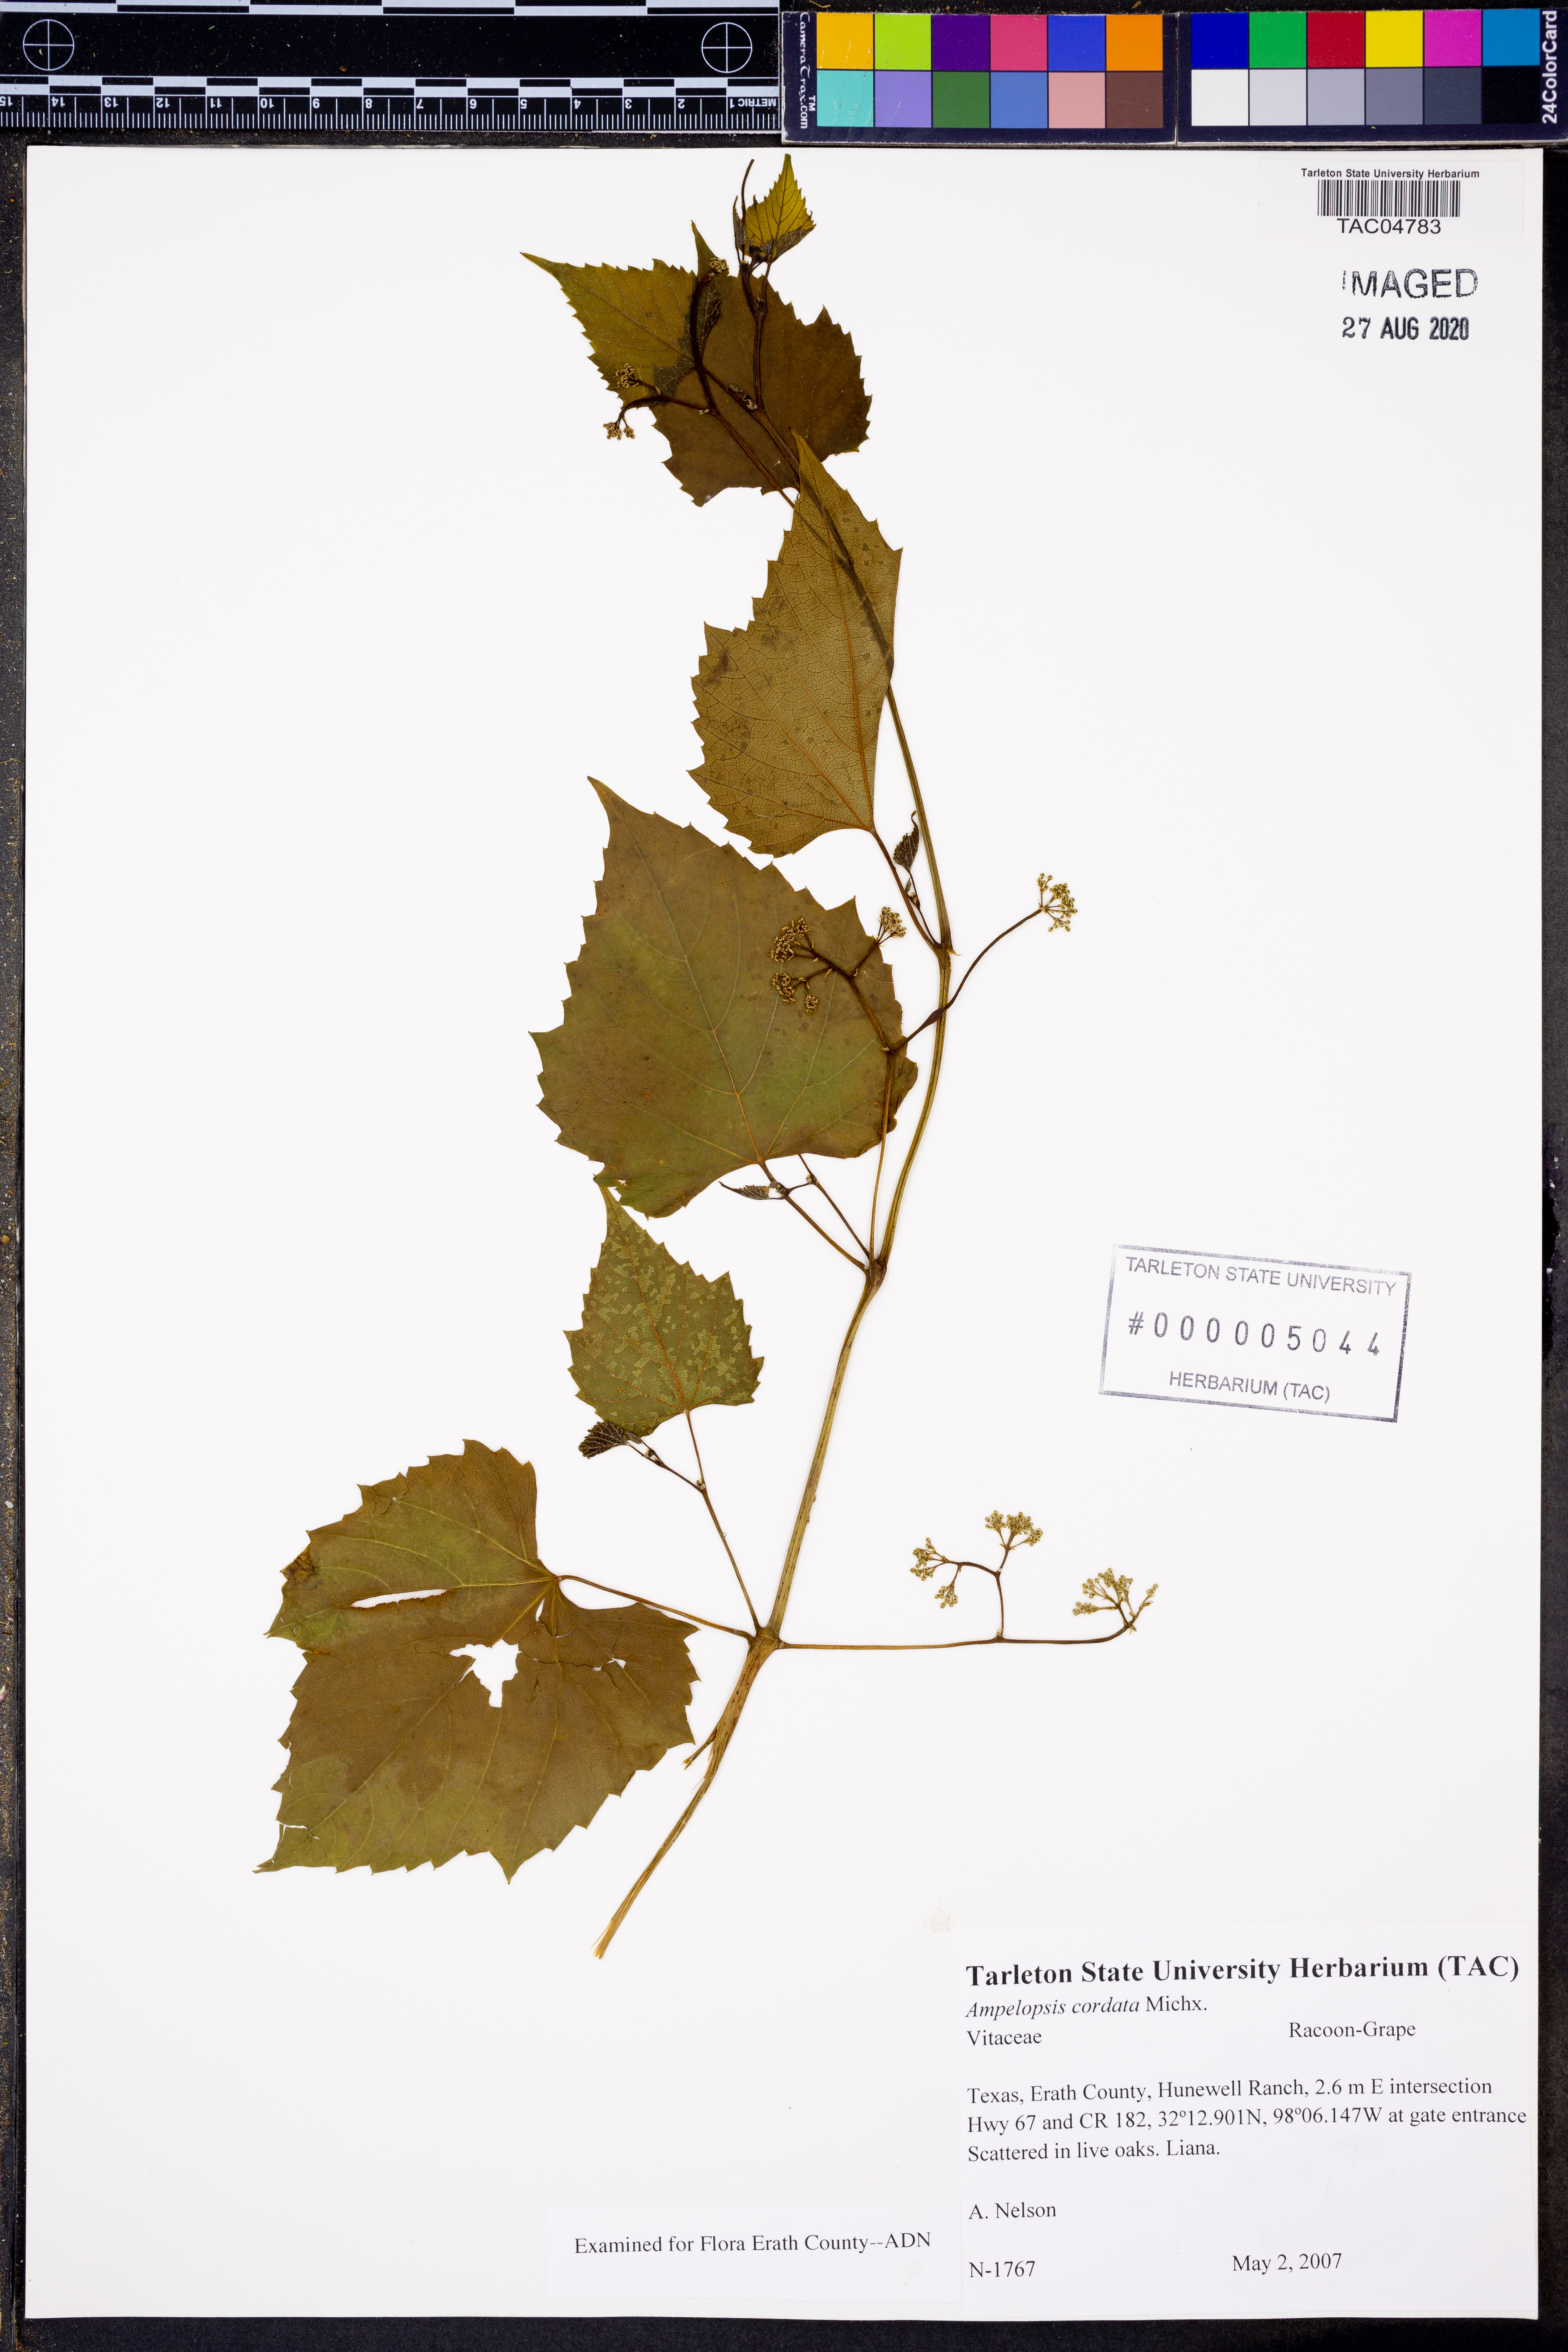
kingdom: Plantae
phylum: Tracheophyta
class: Magnoliopsida
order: Vitales
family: Vitaceae
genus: Ampelopsis
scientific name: Ampelopsis cordata
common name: Heart-leaf ampelopsis
